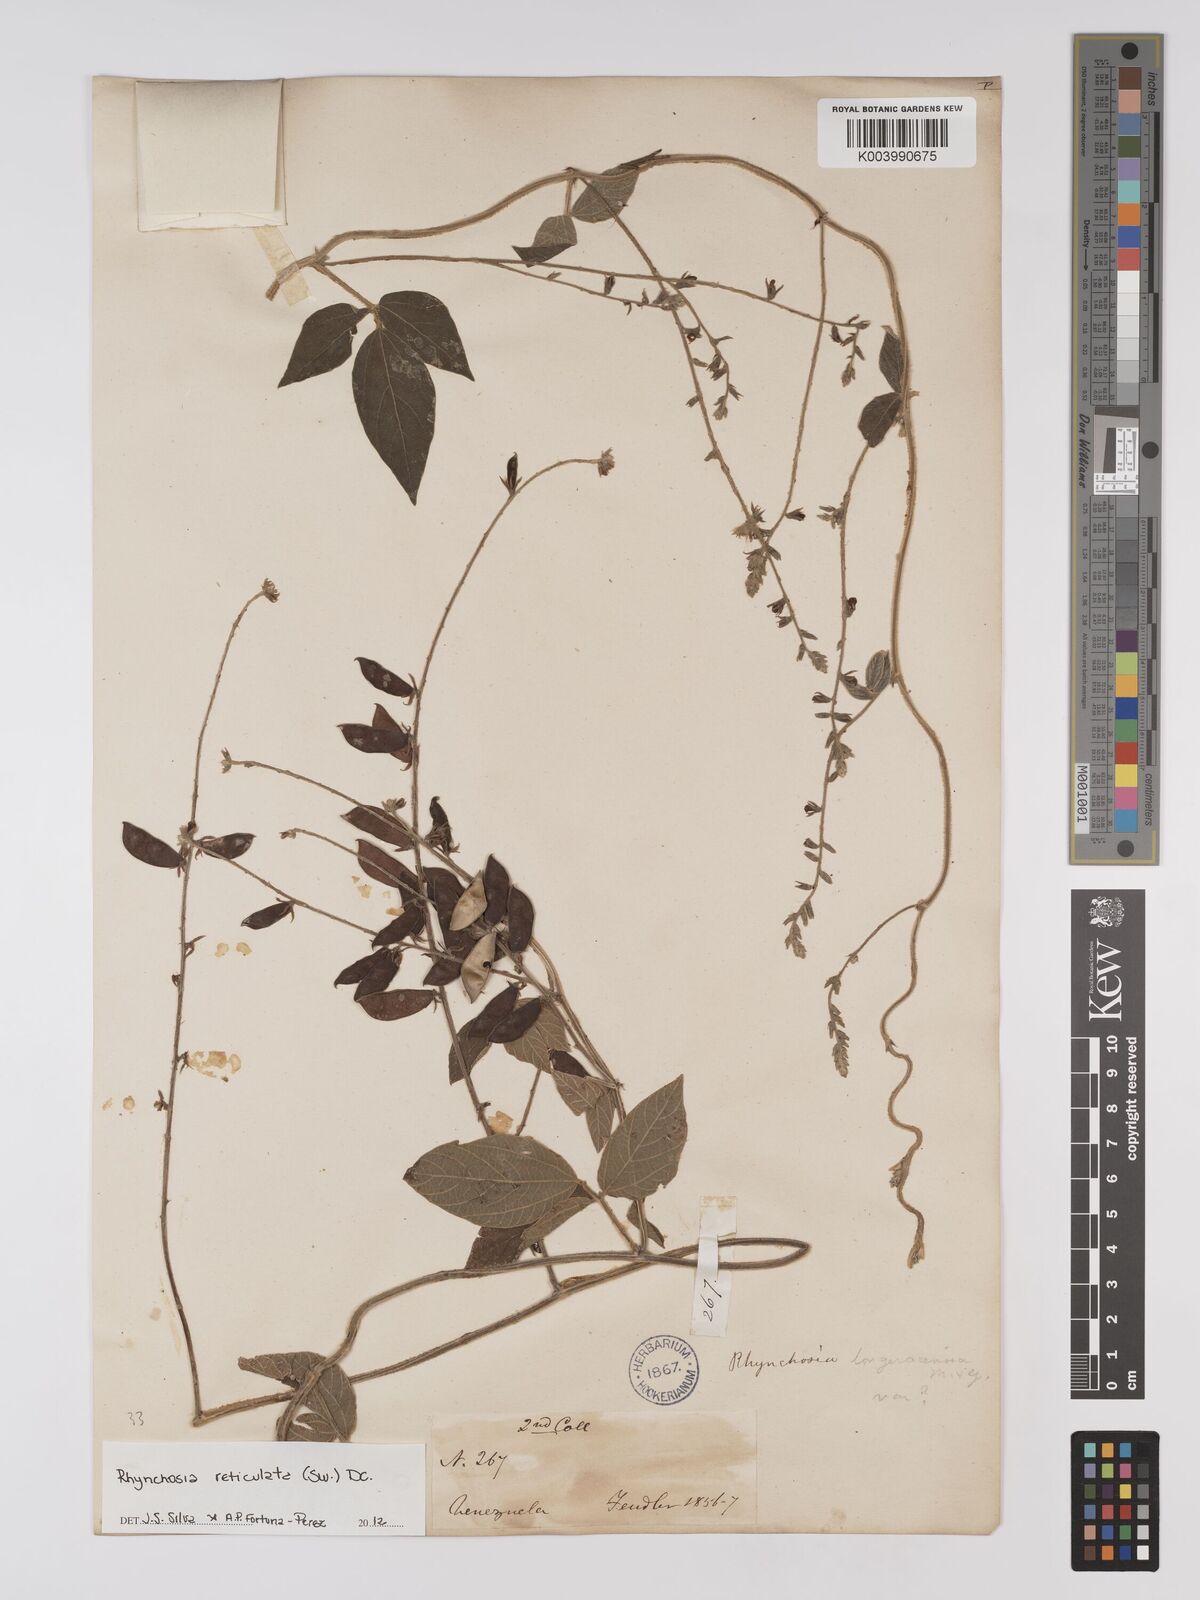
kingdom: Plantae
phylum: Tracheophyta
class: Magnoliopsida
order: Fabales
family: Fabaceae
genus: Rhynchosia
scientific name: Rhynchosia reticulata
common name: Pea withe
